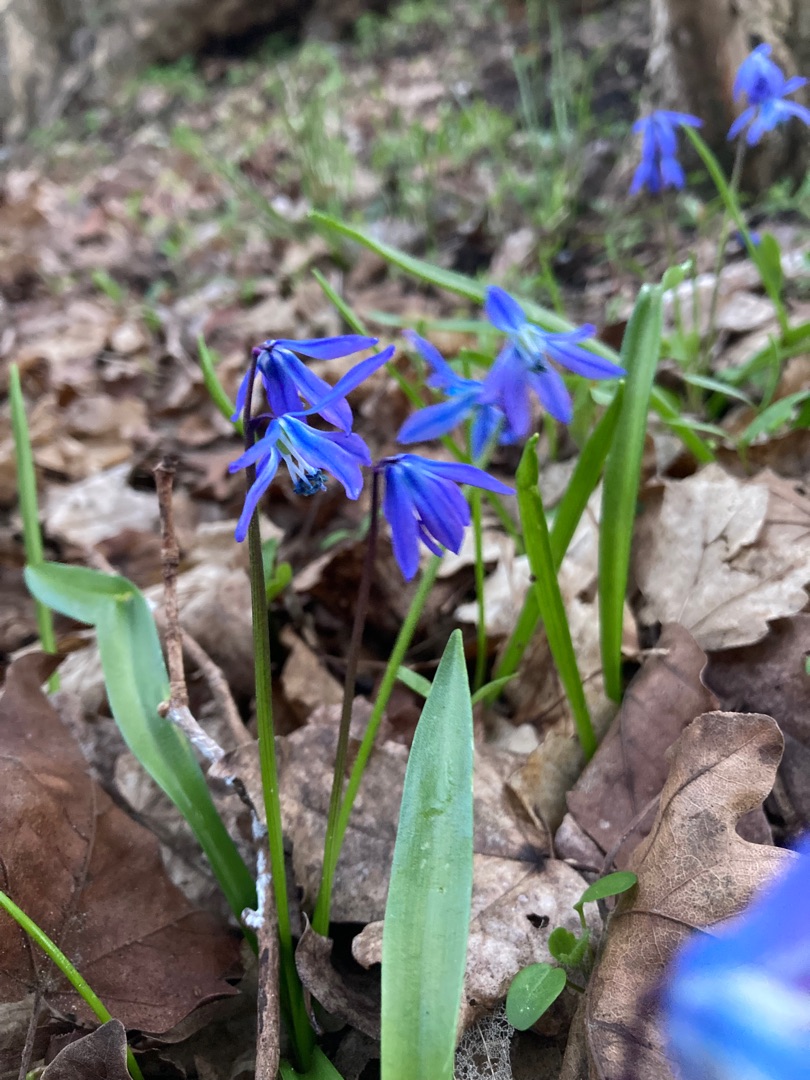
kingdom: Plantae
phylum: Tracheophyta
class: Liliopsida
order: Asparagales
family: Asparagaceae
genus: Scilla
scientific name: Scilla siberica
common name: Russisk skilla
